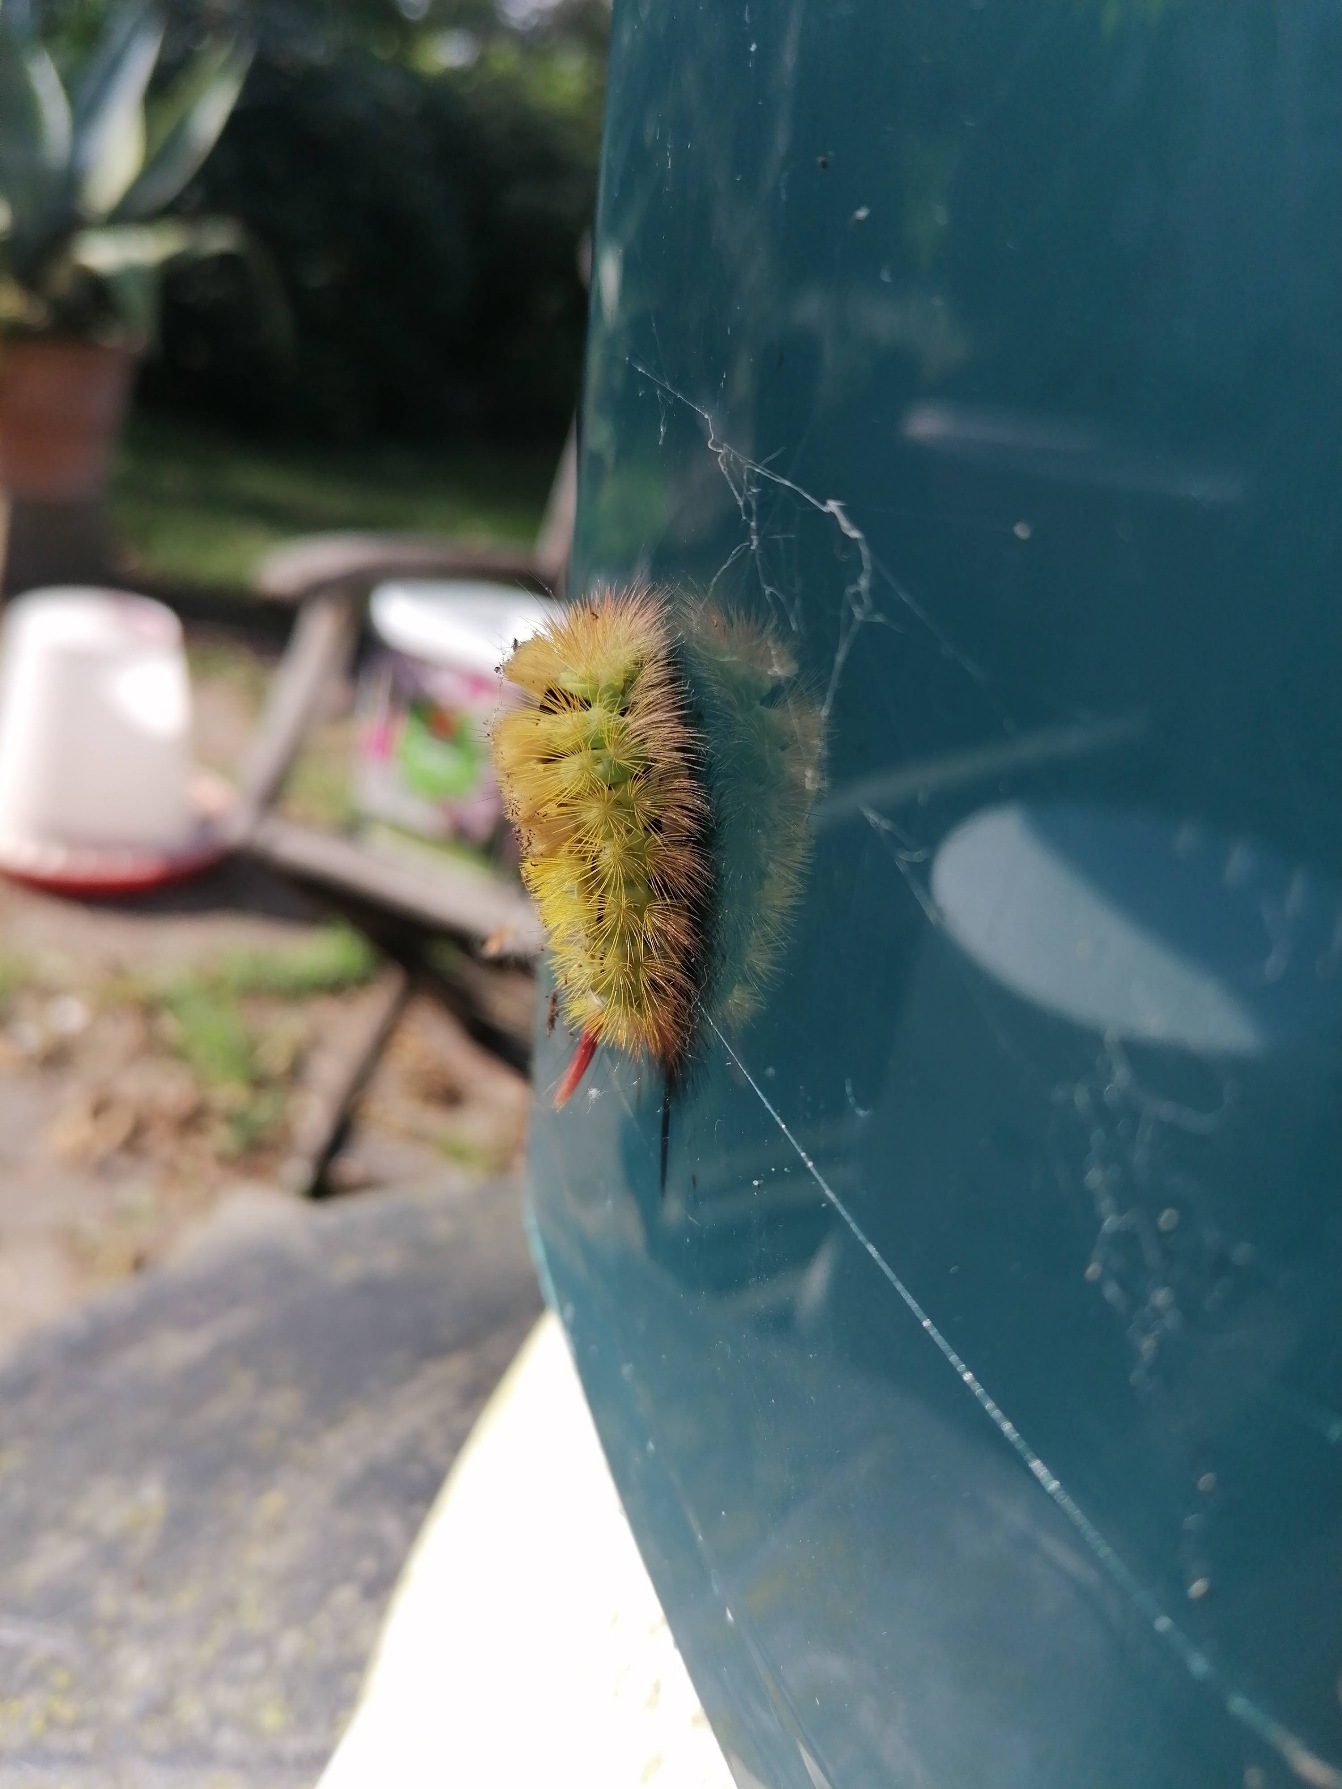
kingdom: Animalia
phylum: Arthropoda
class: Insecta
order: Lepidoptera
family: Erebidae
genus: Calliteara
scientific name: Calliteara pudibunda
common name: Bøgenonne
